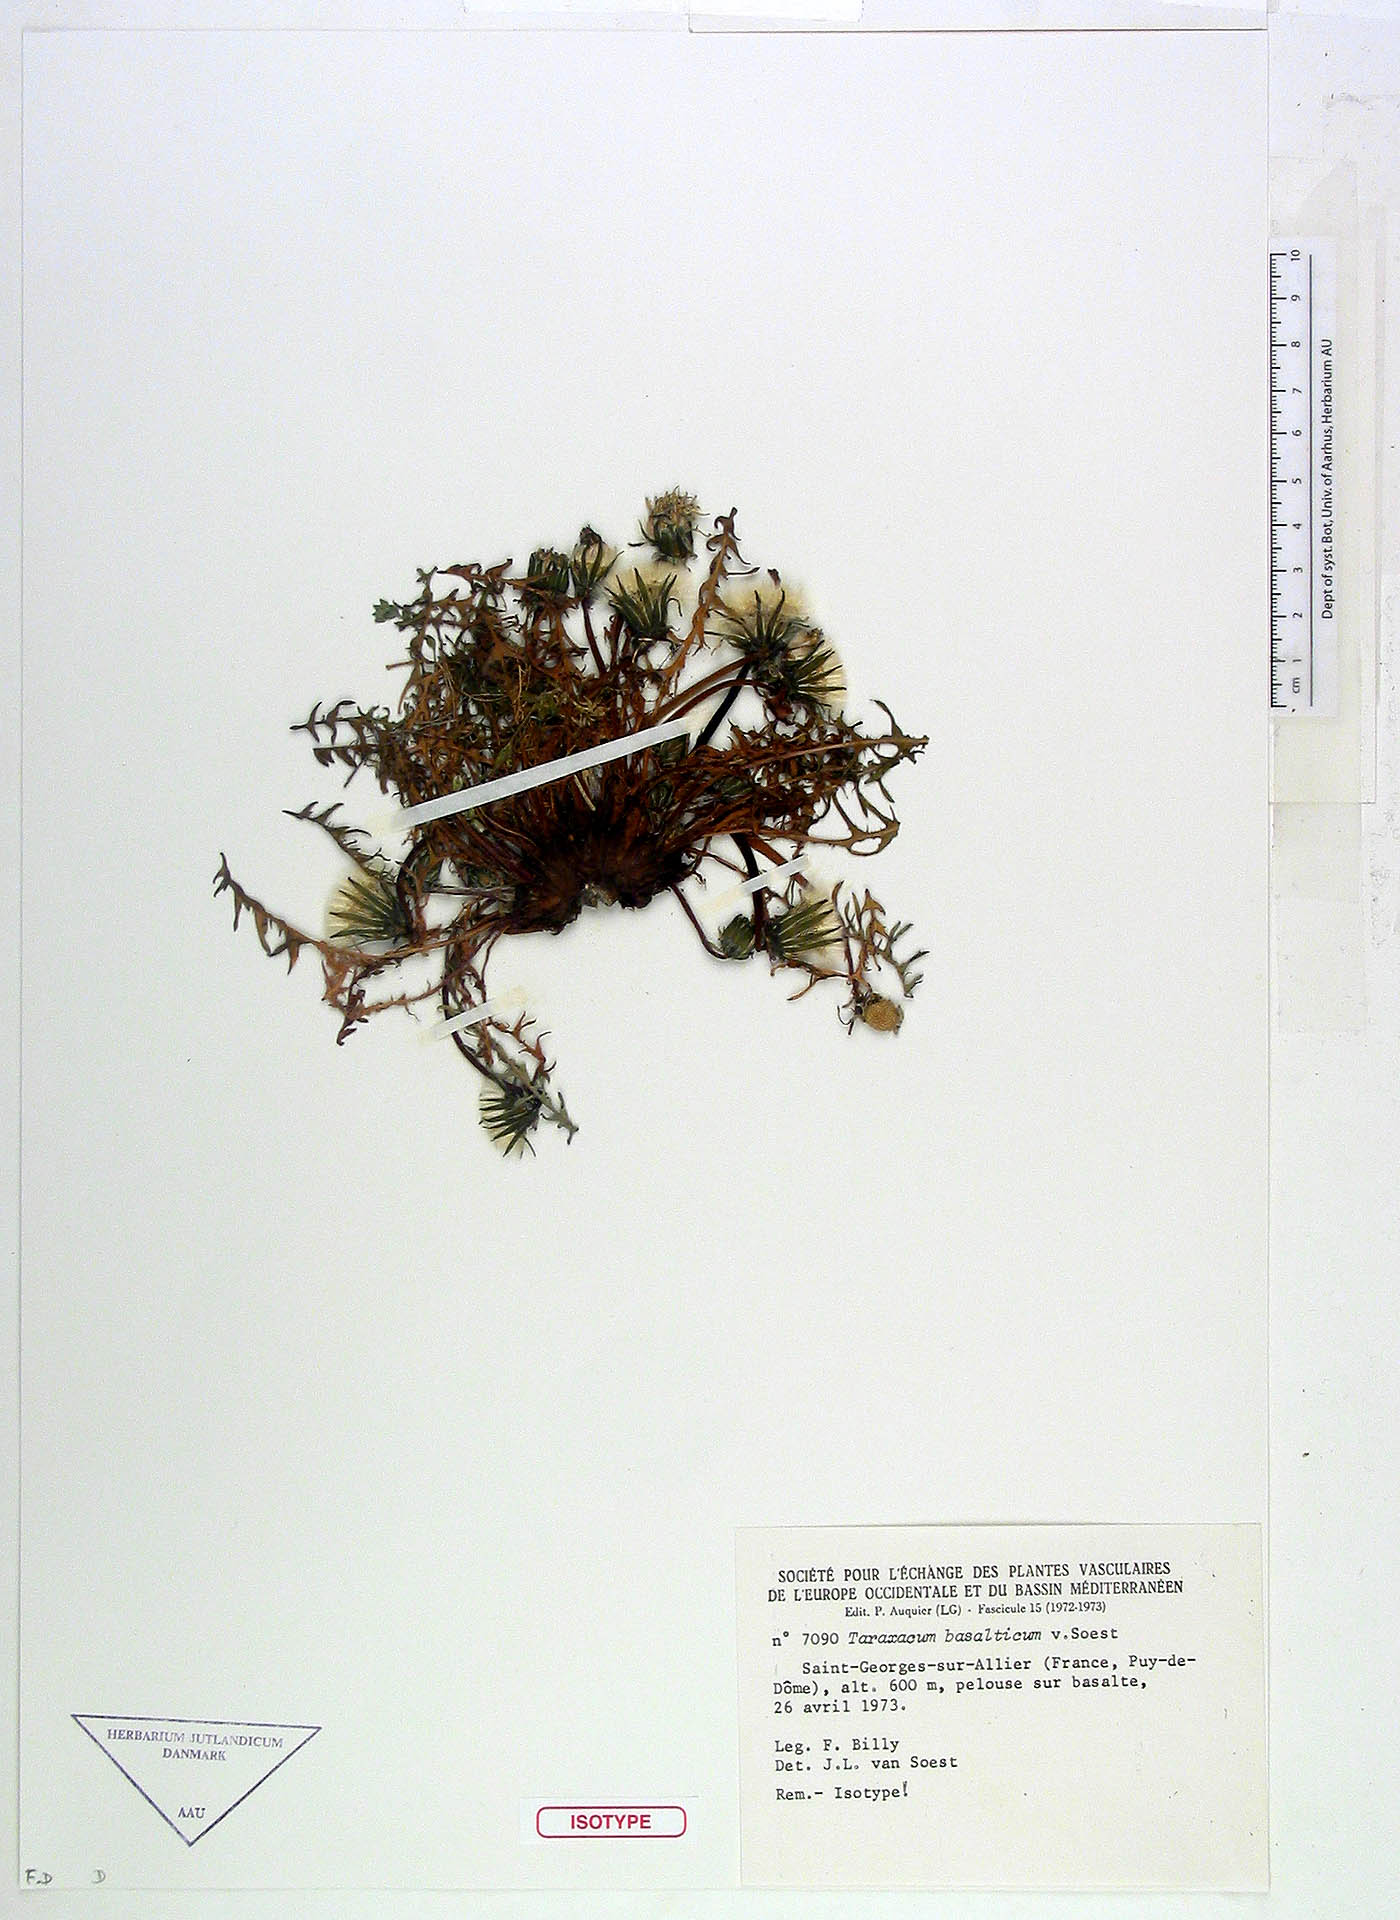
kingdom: Plantae
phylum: Tracheophyta
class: Magnoliopsida
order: Asterales
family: Asteraceae
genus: Taraxacum
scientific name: Taraxacum basalticum
